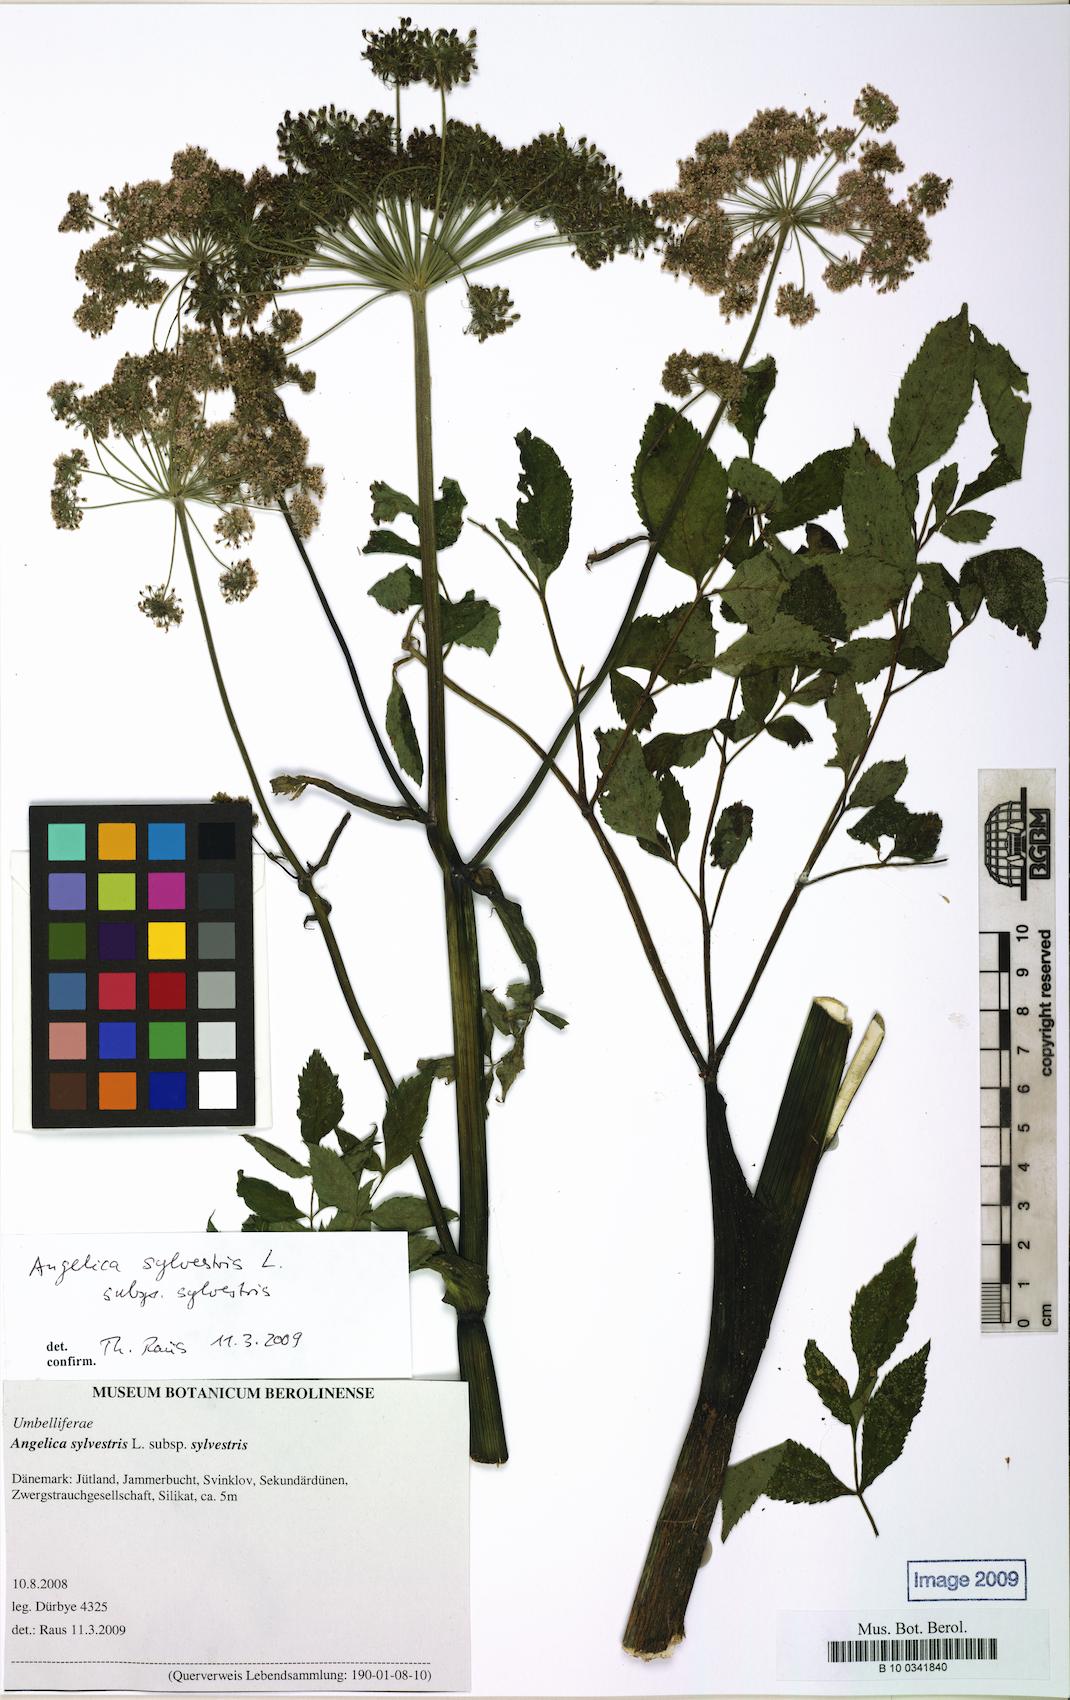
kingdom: Plantae
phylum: Tracheophyta
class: Magnoliopsida
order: Apiales
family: Apiaceae
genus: Angelica
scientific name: Angelica sylvestris
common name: Wild angelica
